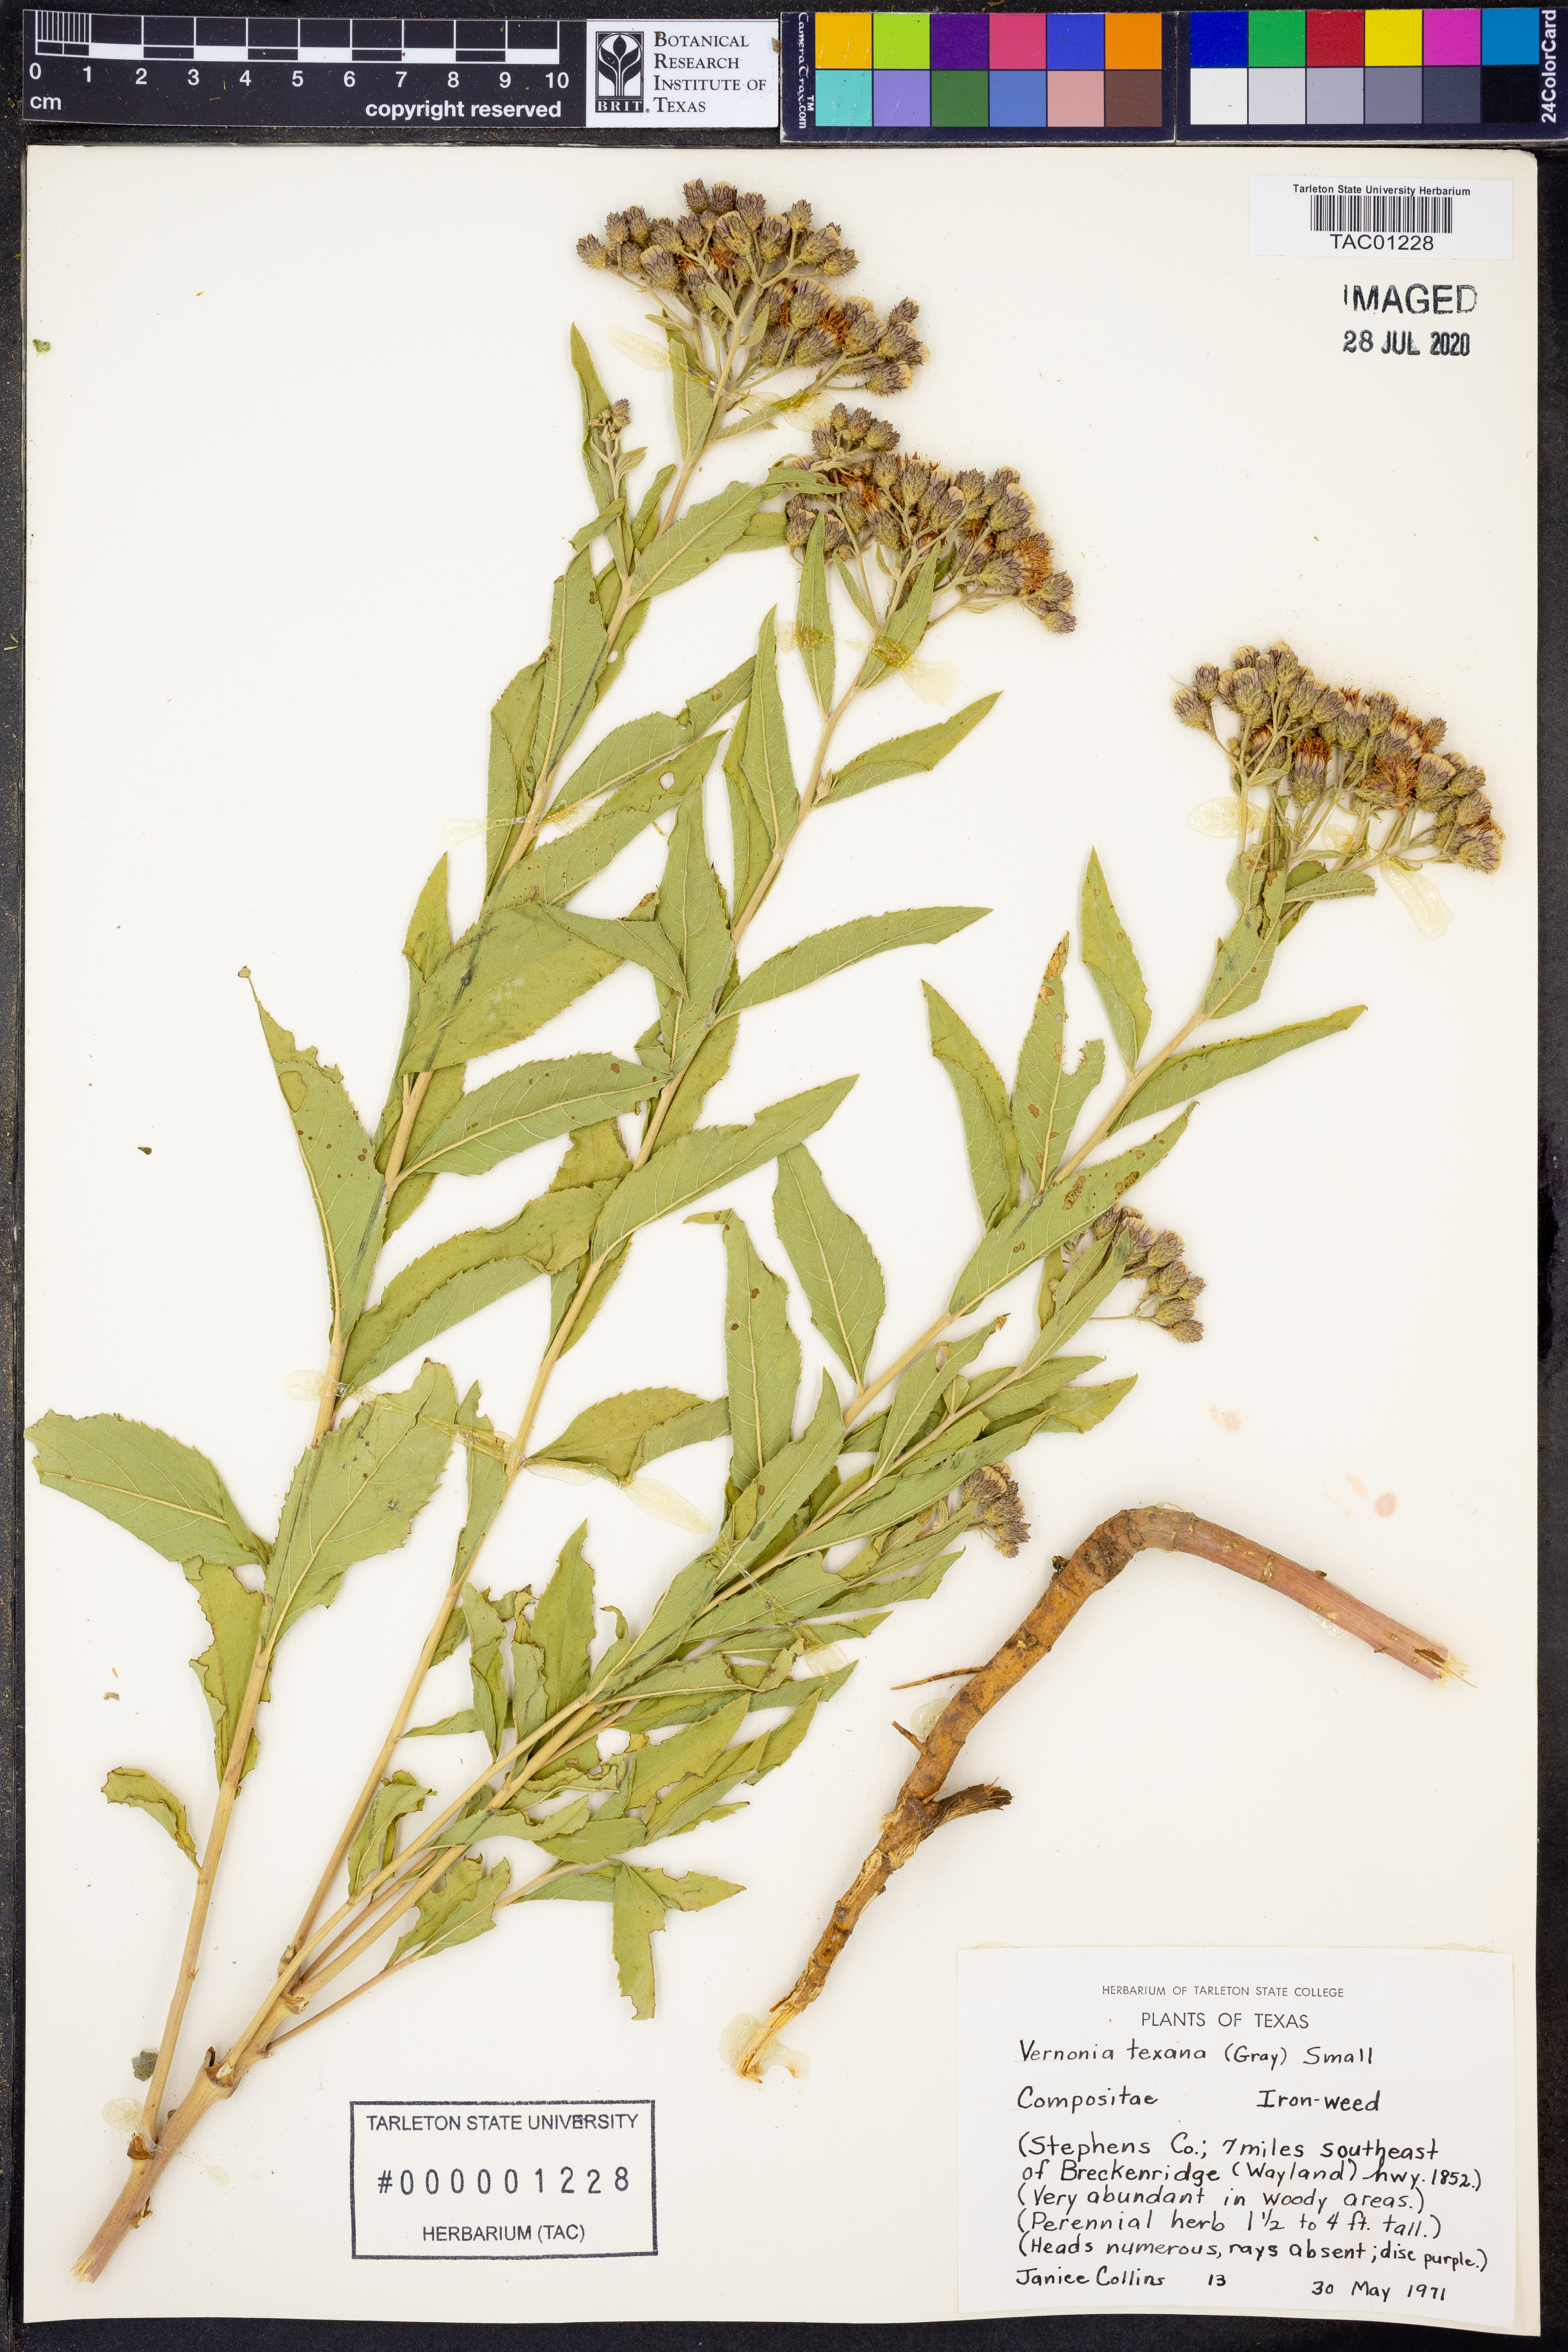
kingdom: Plantae
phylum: Tracheophyta
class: Magnoliopsida
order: Asterales
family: Asteraceae
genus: Vernonia
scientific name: Vernonia texana
